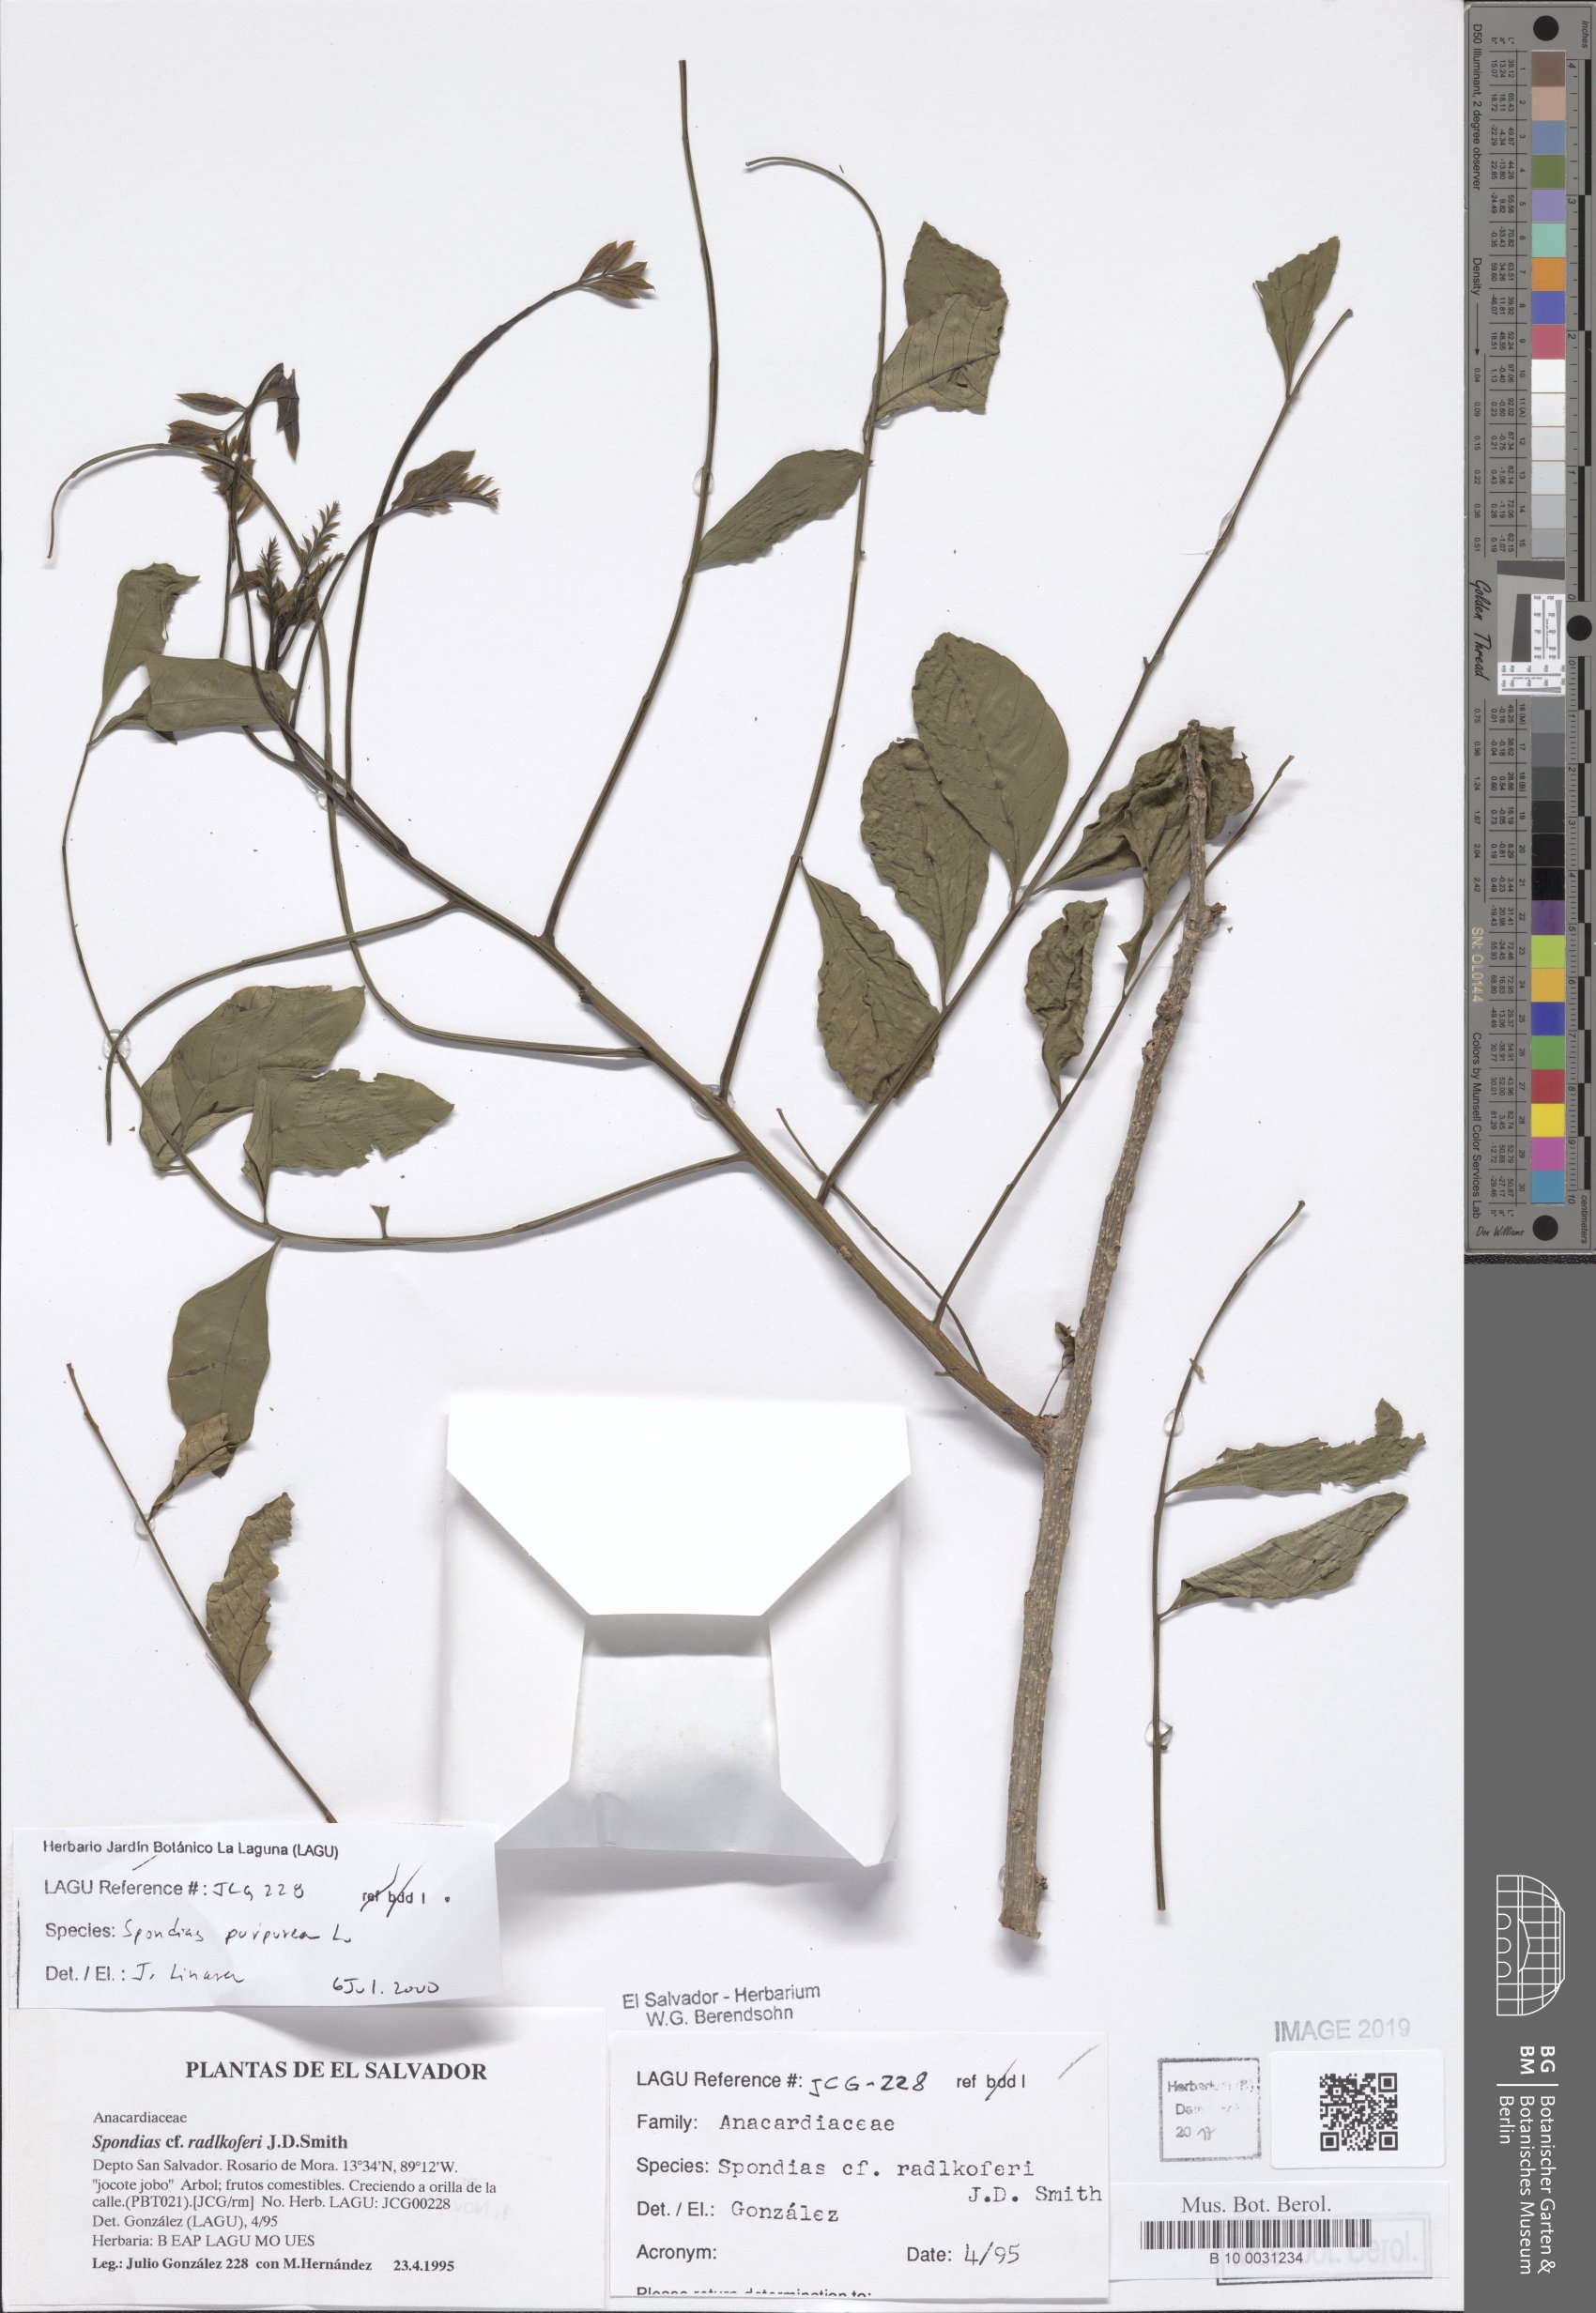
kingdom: Plantae
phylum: Tracheophyta
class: Magnoliopsida
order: Sapindales
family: Anacardiaceae
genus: Spondias
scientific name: Spondias purpurea
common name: Purple mombin
